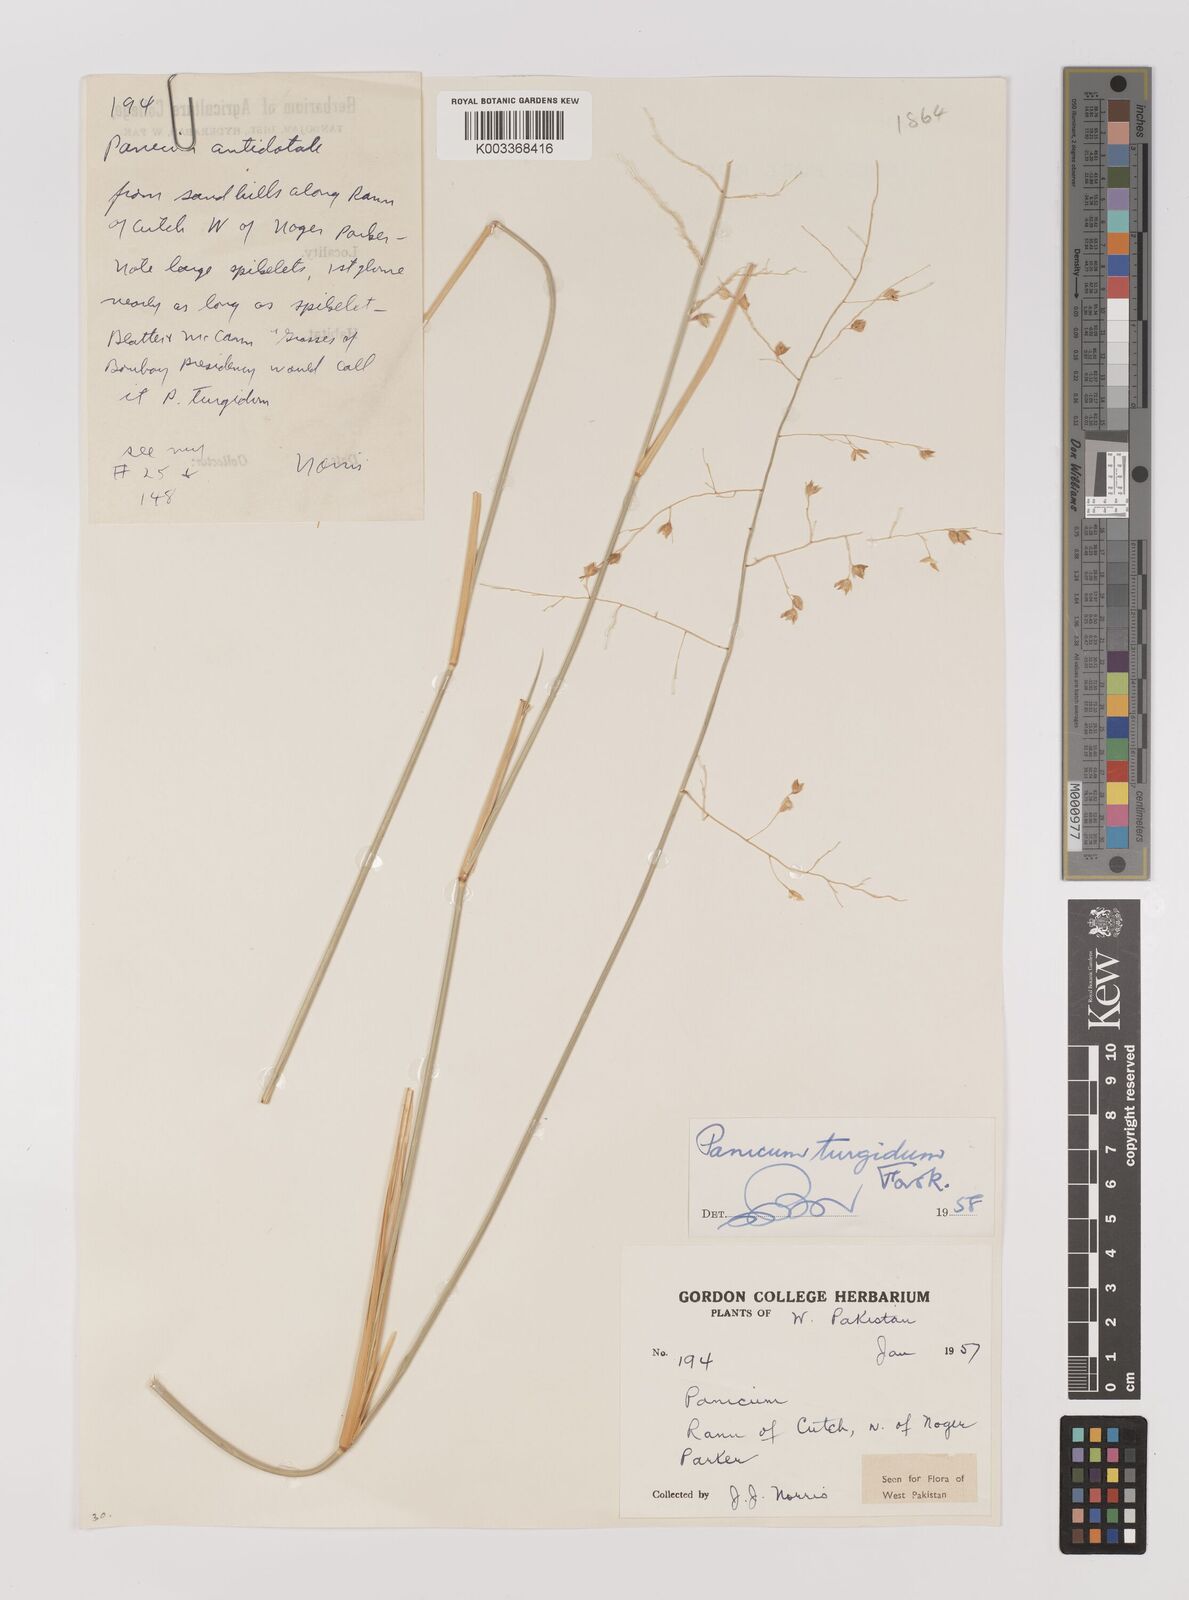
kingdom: Plantae
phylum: Tracheophyta
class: Liliopsida
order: Poales
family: Poaceae
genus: Panicum
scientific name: Panicum turgidum
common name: Desert grass
